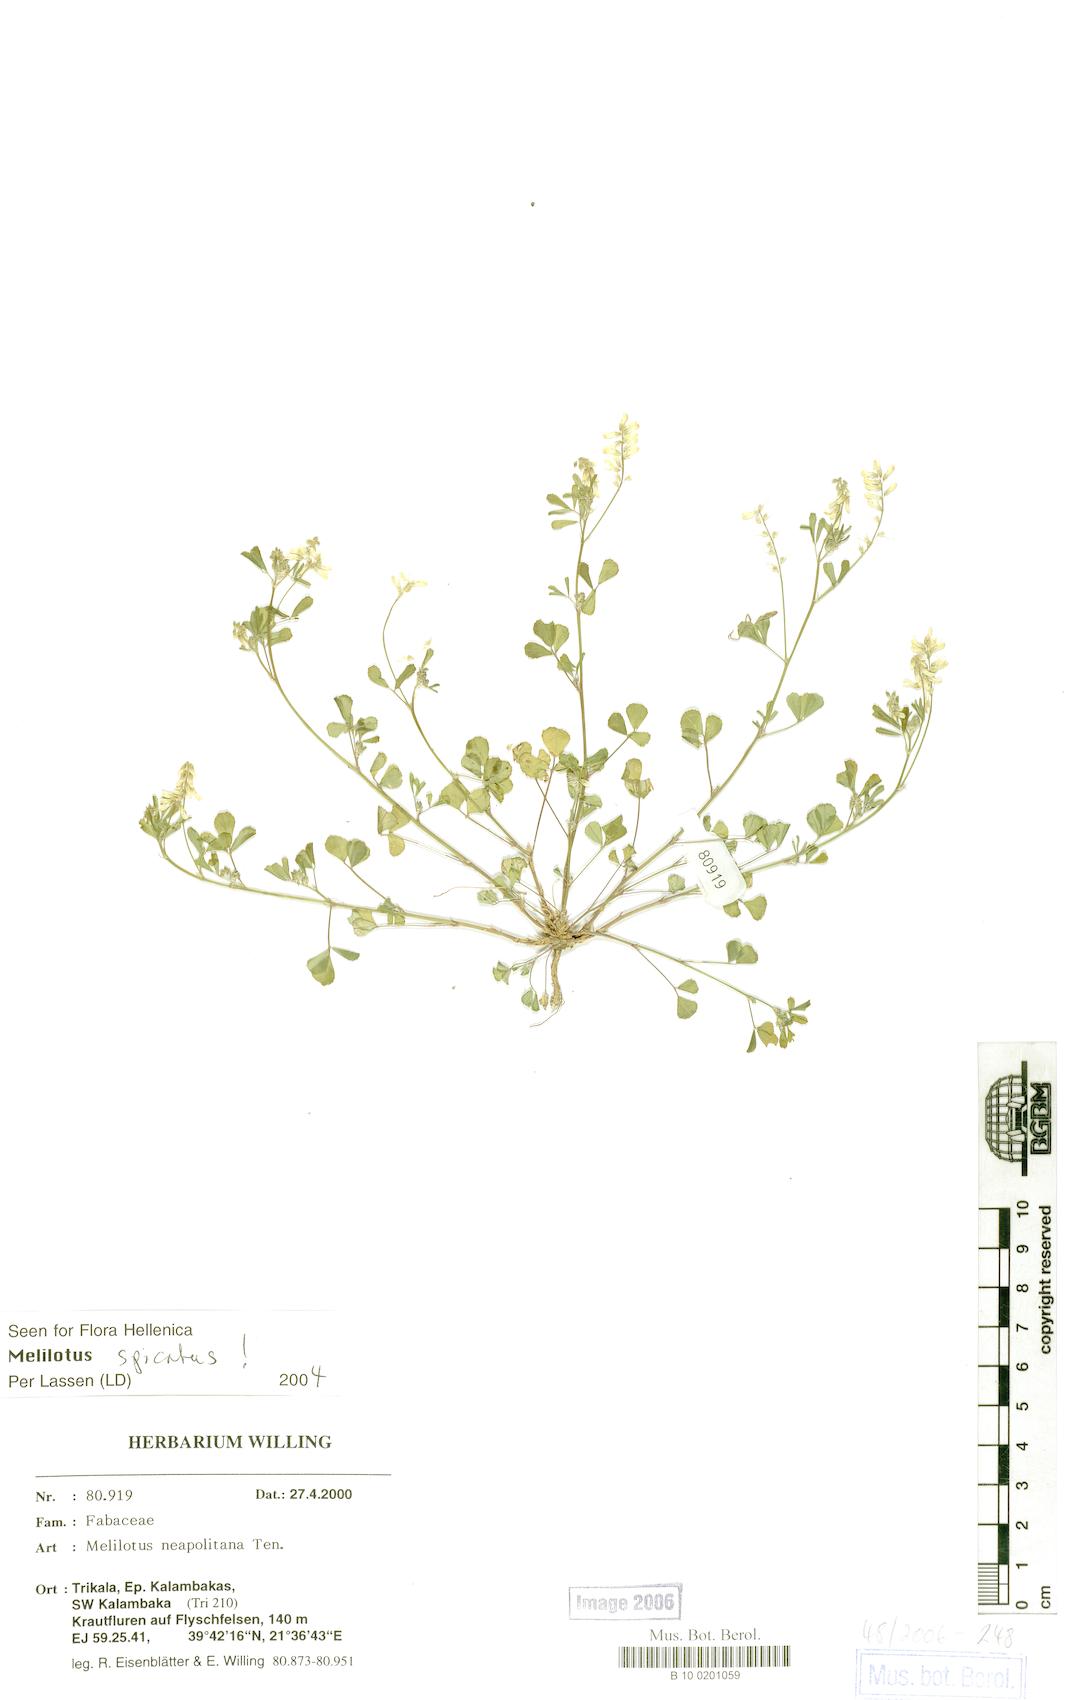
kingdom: Plantae
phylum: Tracheophyta
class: Magnoliopsida
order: Fabales
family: Fabaceae
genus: Melilotus
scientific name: Melilotus neapolitanus
